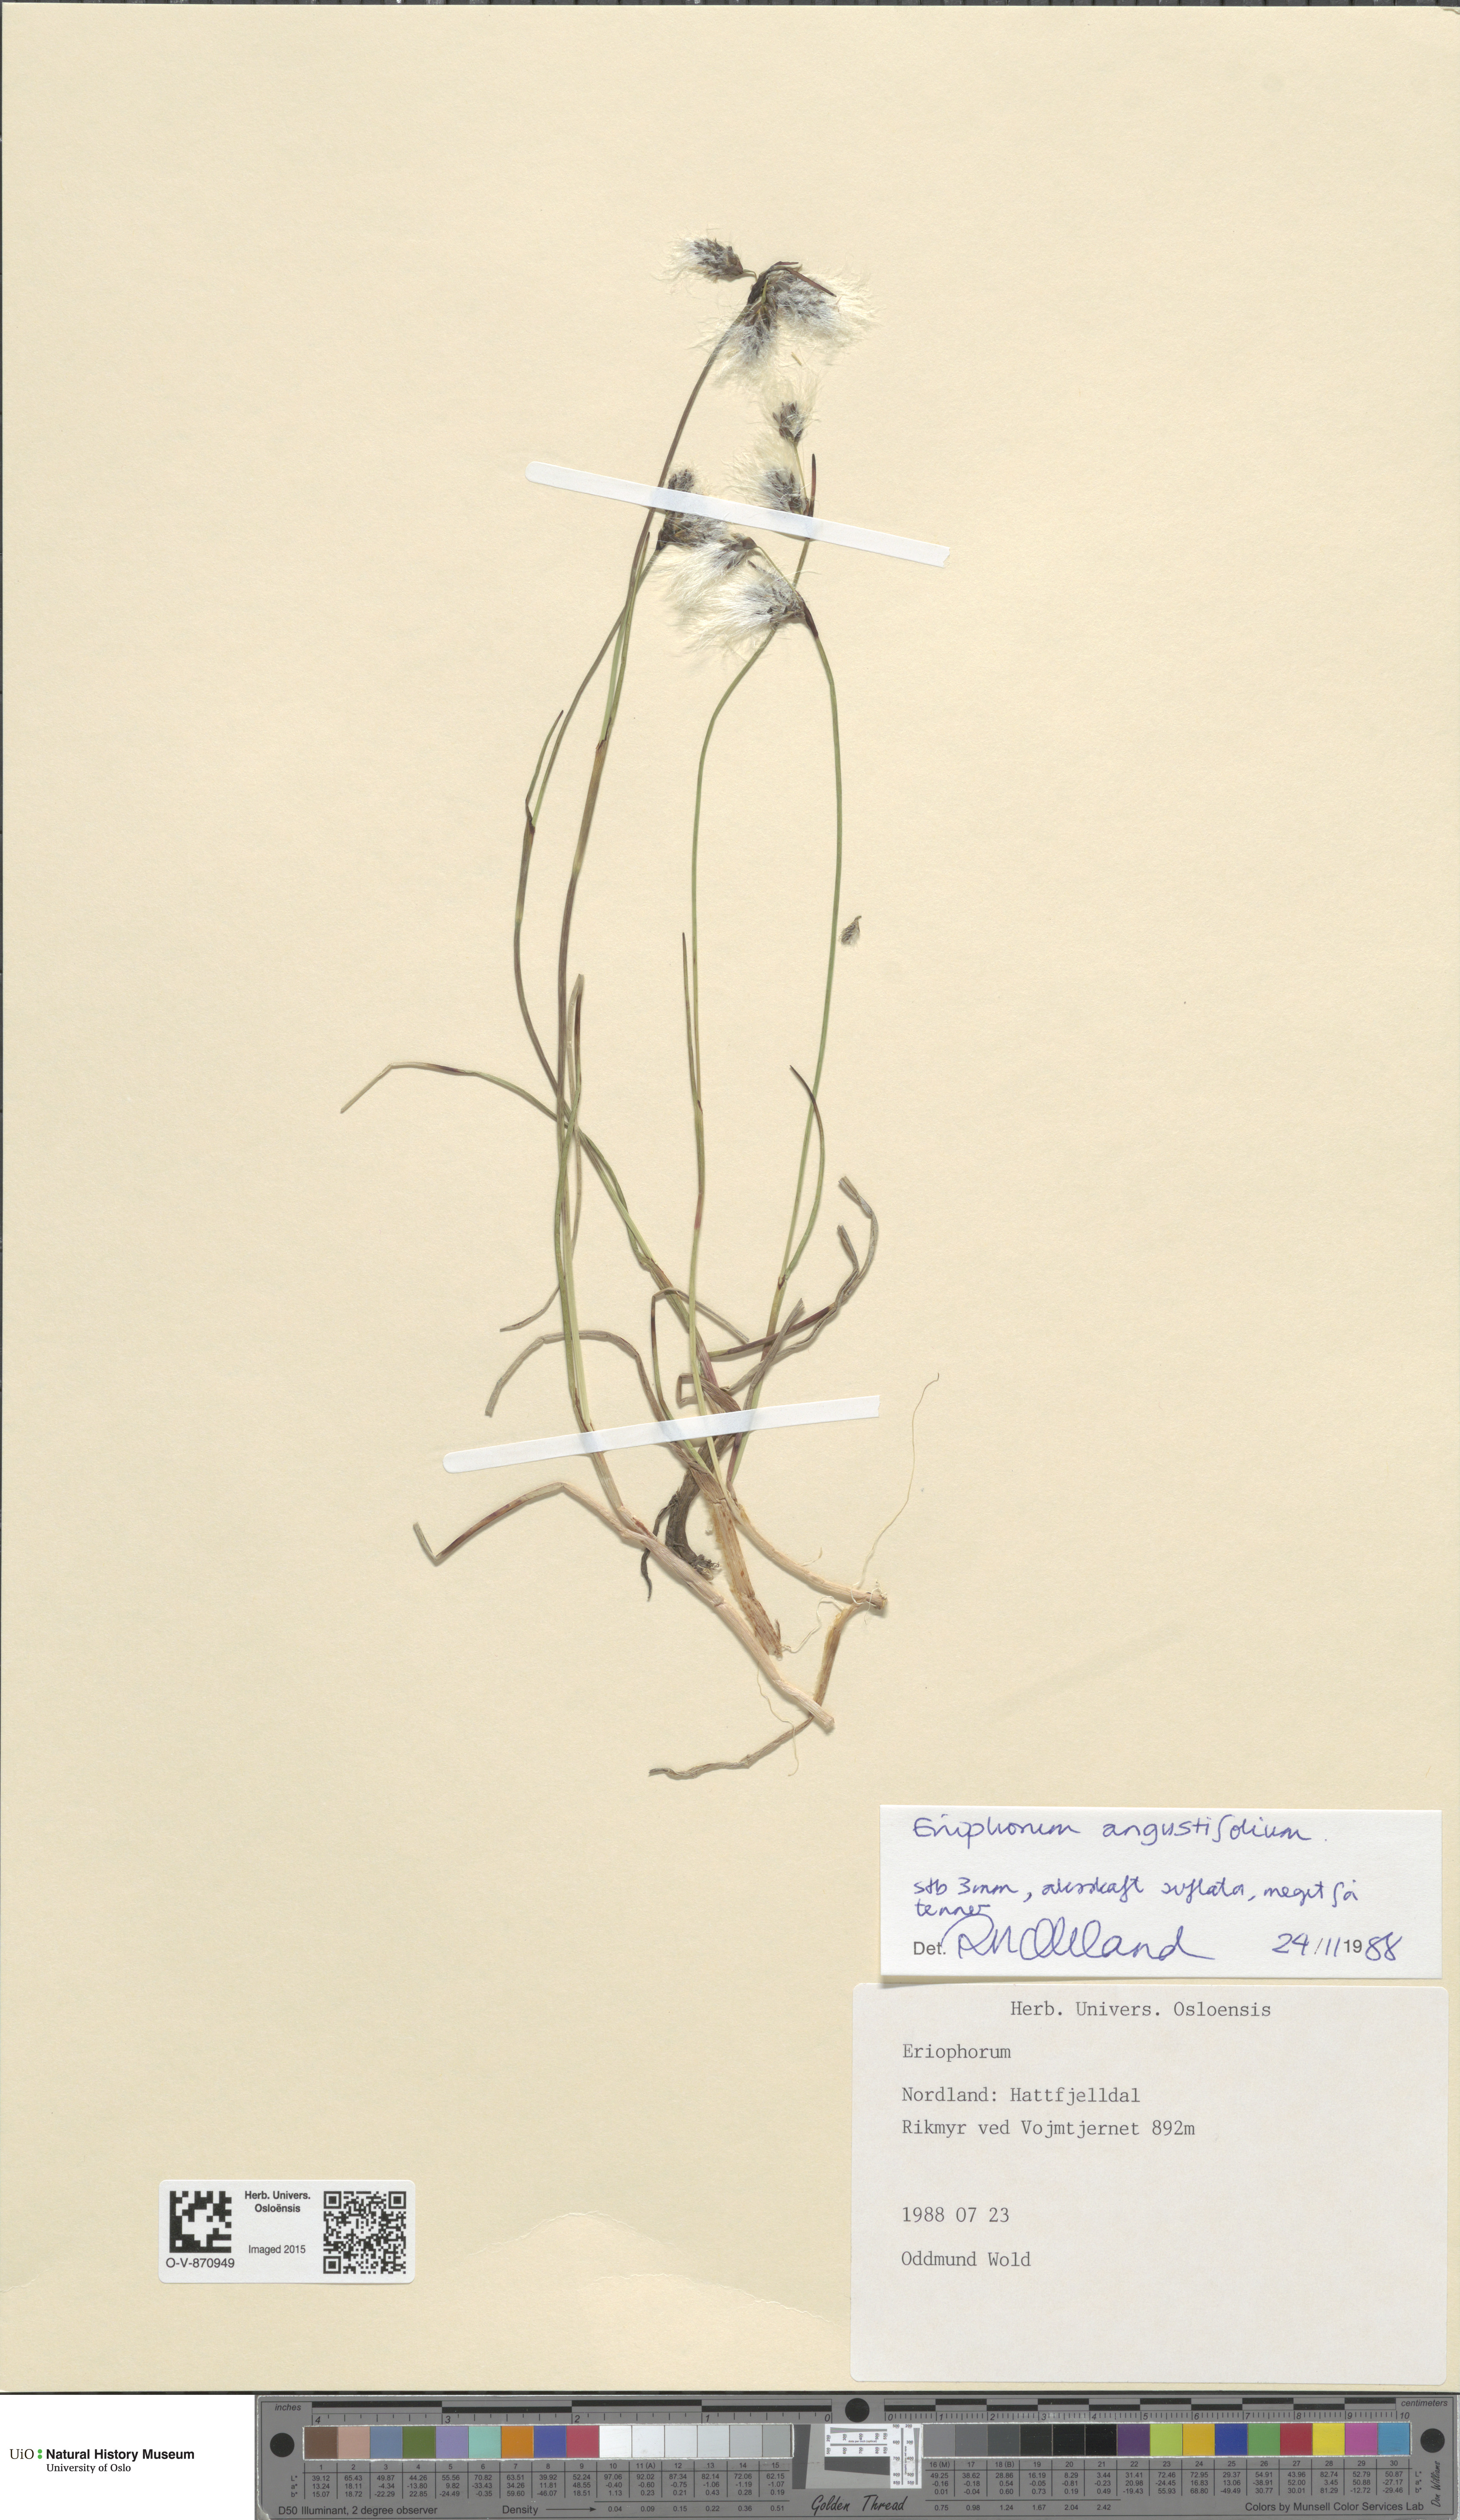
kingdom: Plantae
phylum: Tracheophyta
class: Liliopsida
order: Poales
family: Cyperaceae
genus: Eriophorum
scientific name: Eriophorum angustifolium
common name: Common cottongrass
